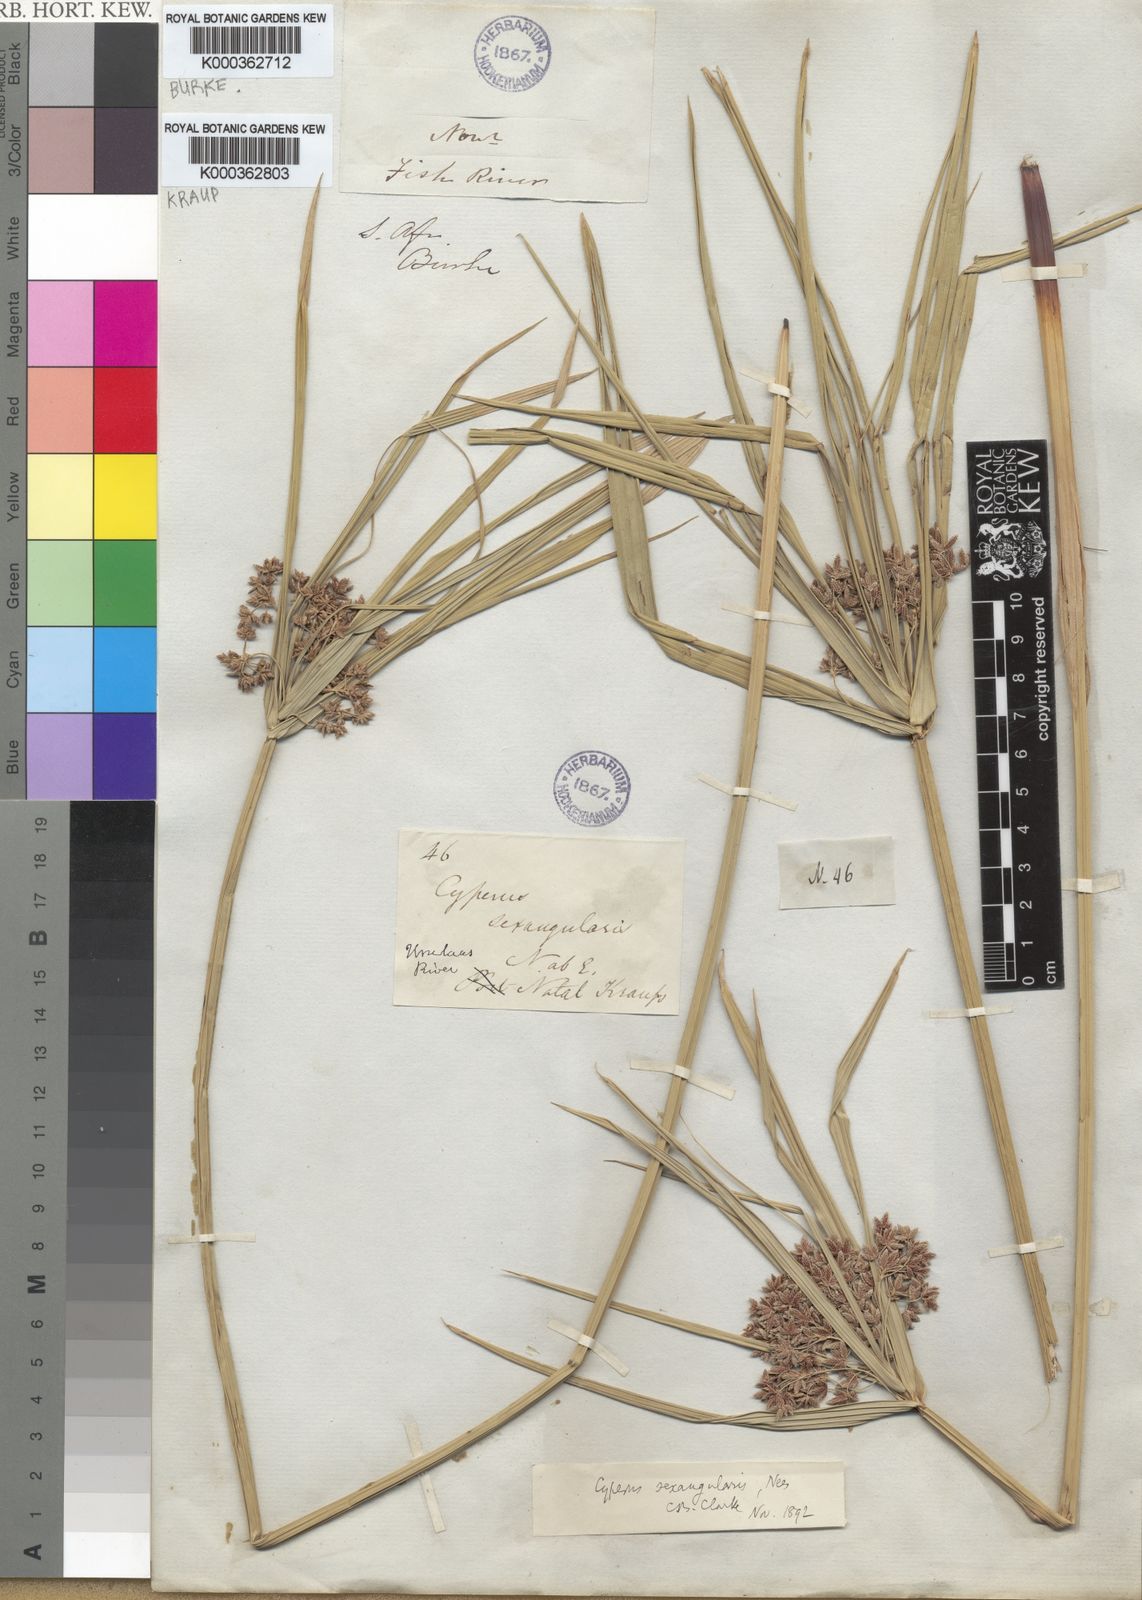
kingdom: Plantae
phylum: Tracheophyta
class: Liliopsida
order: Poales
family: Cyperaceae
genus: Cyperus
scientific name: Cyperus sexangularis
